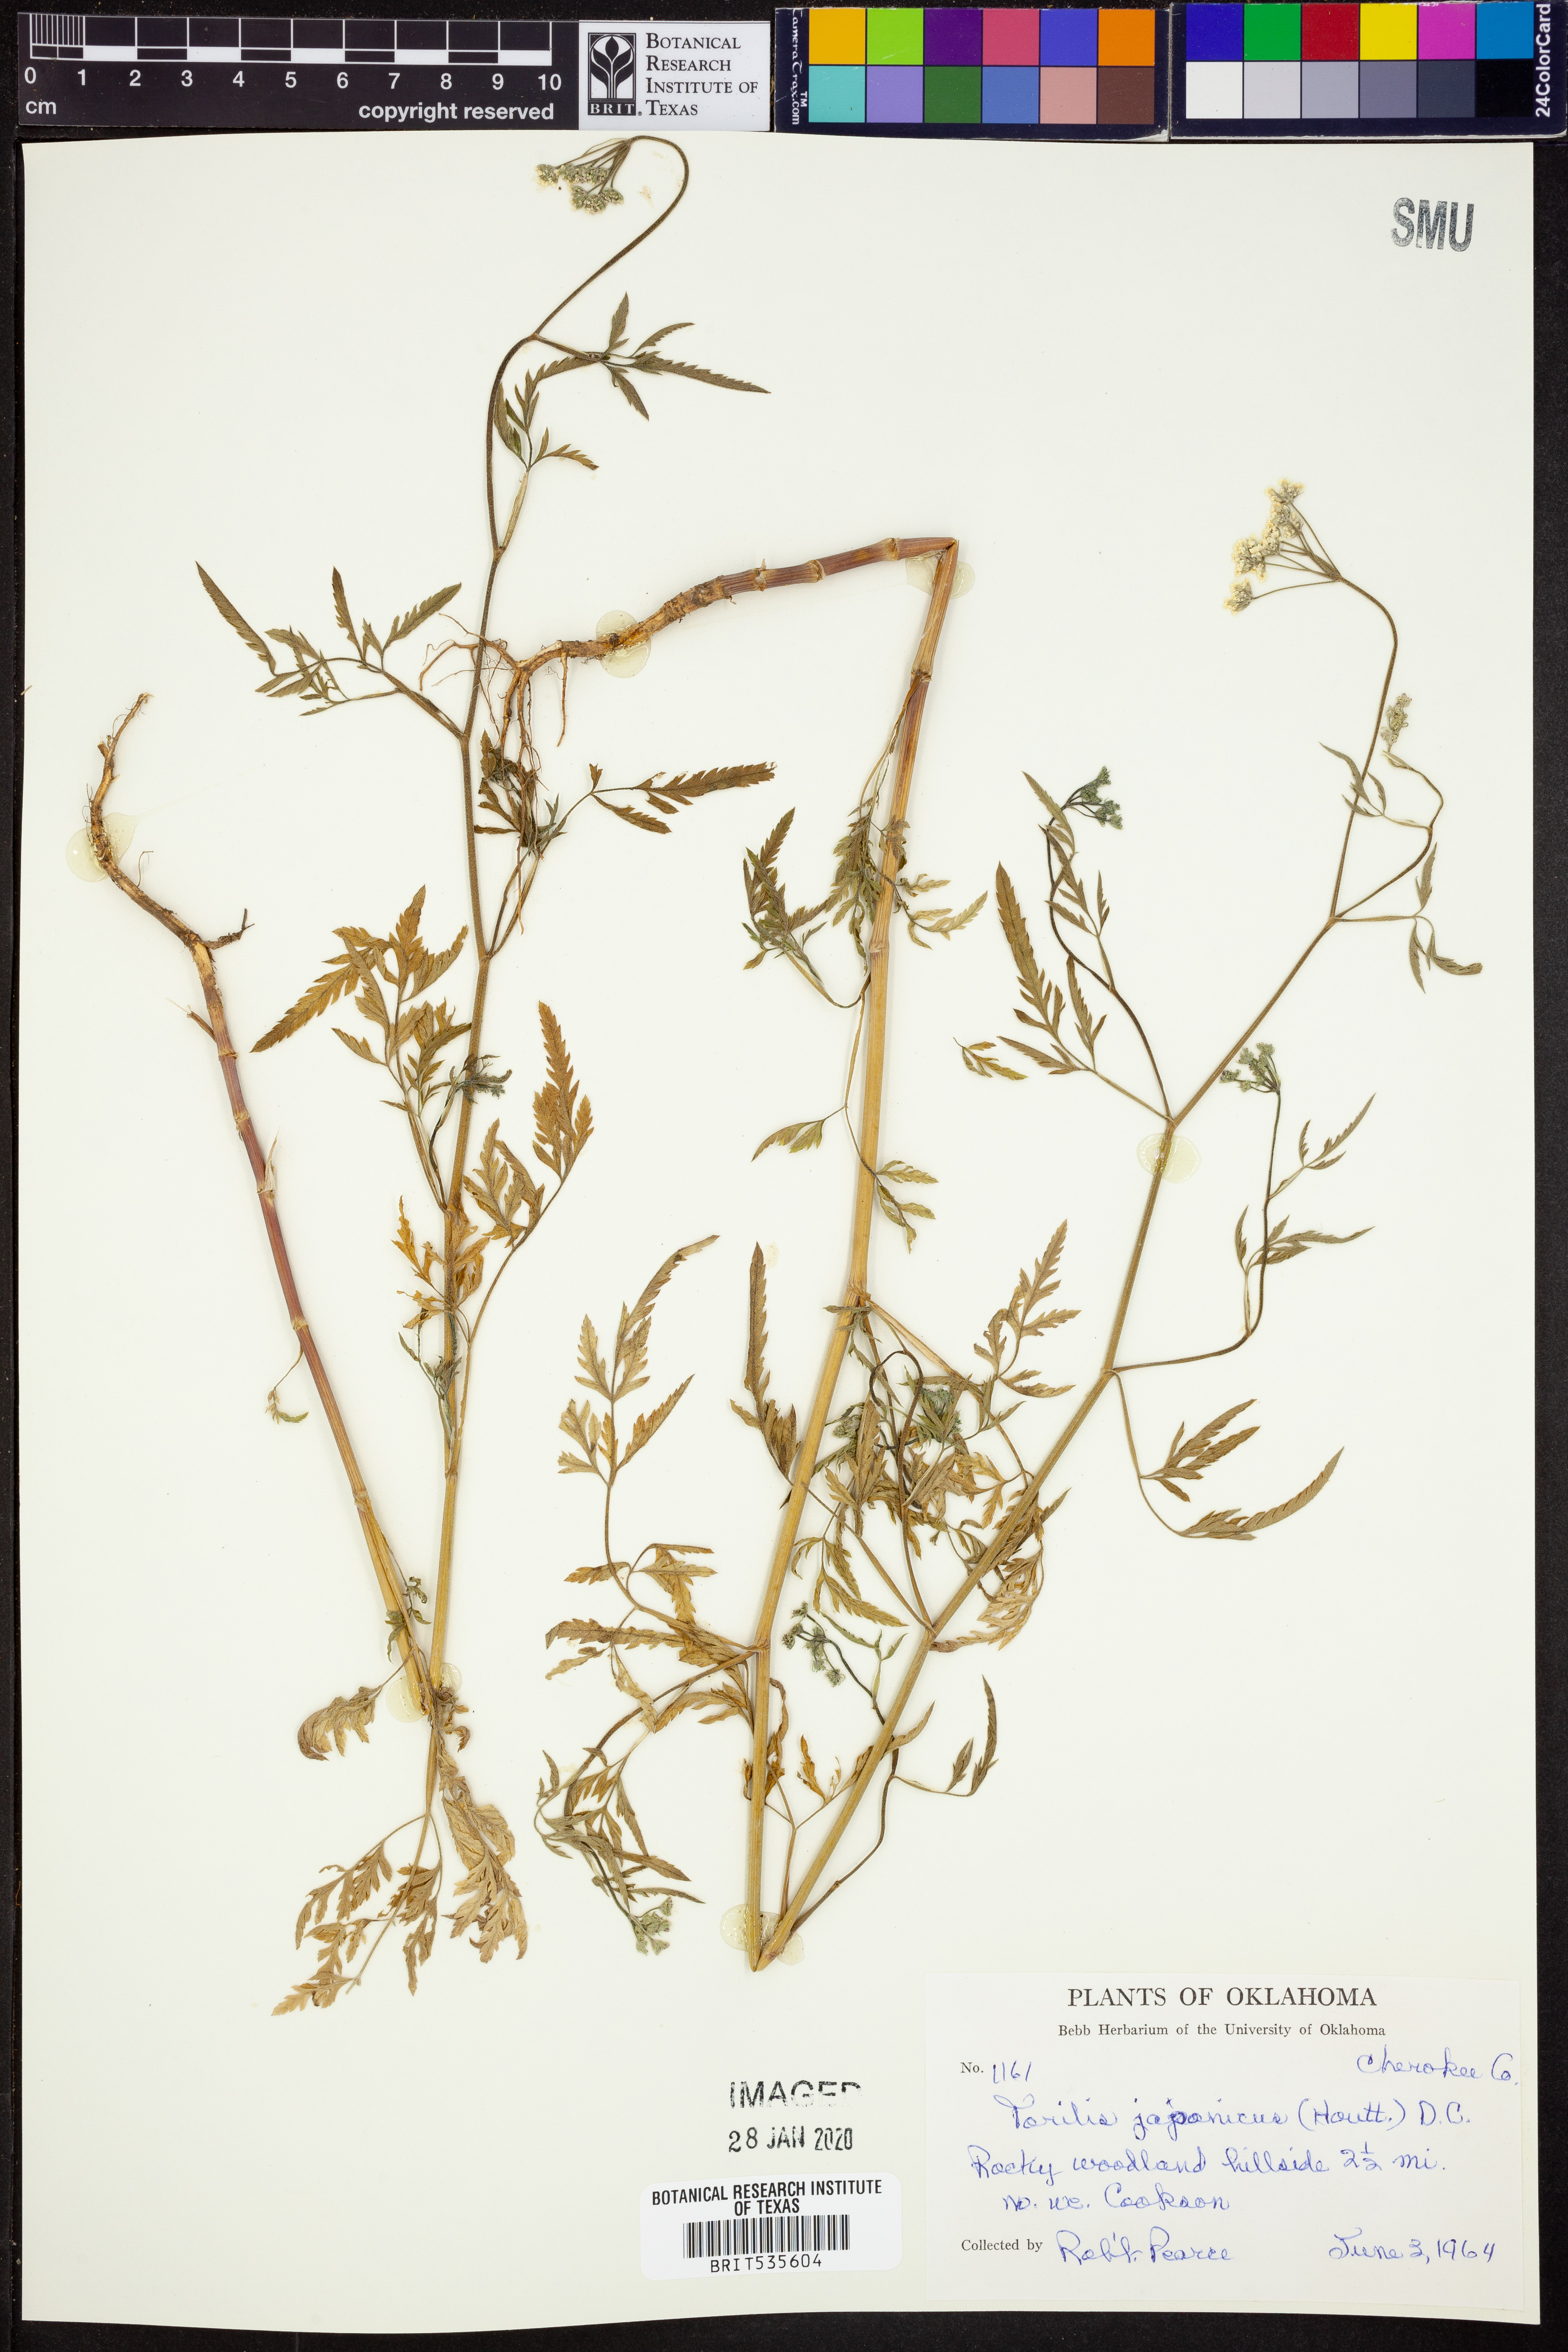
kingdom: Plantae
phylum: Tracheophyta
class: Magnoliopsida
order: Apiales
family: Apiaceae
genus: Torilis
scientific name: Torilis japonica
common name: Upright hedge-parsley
